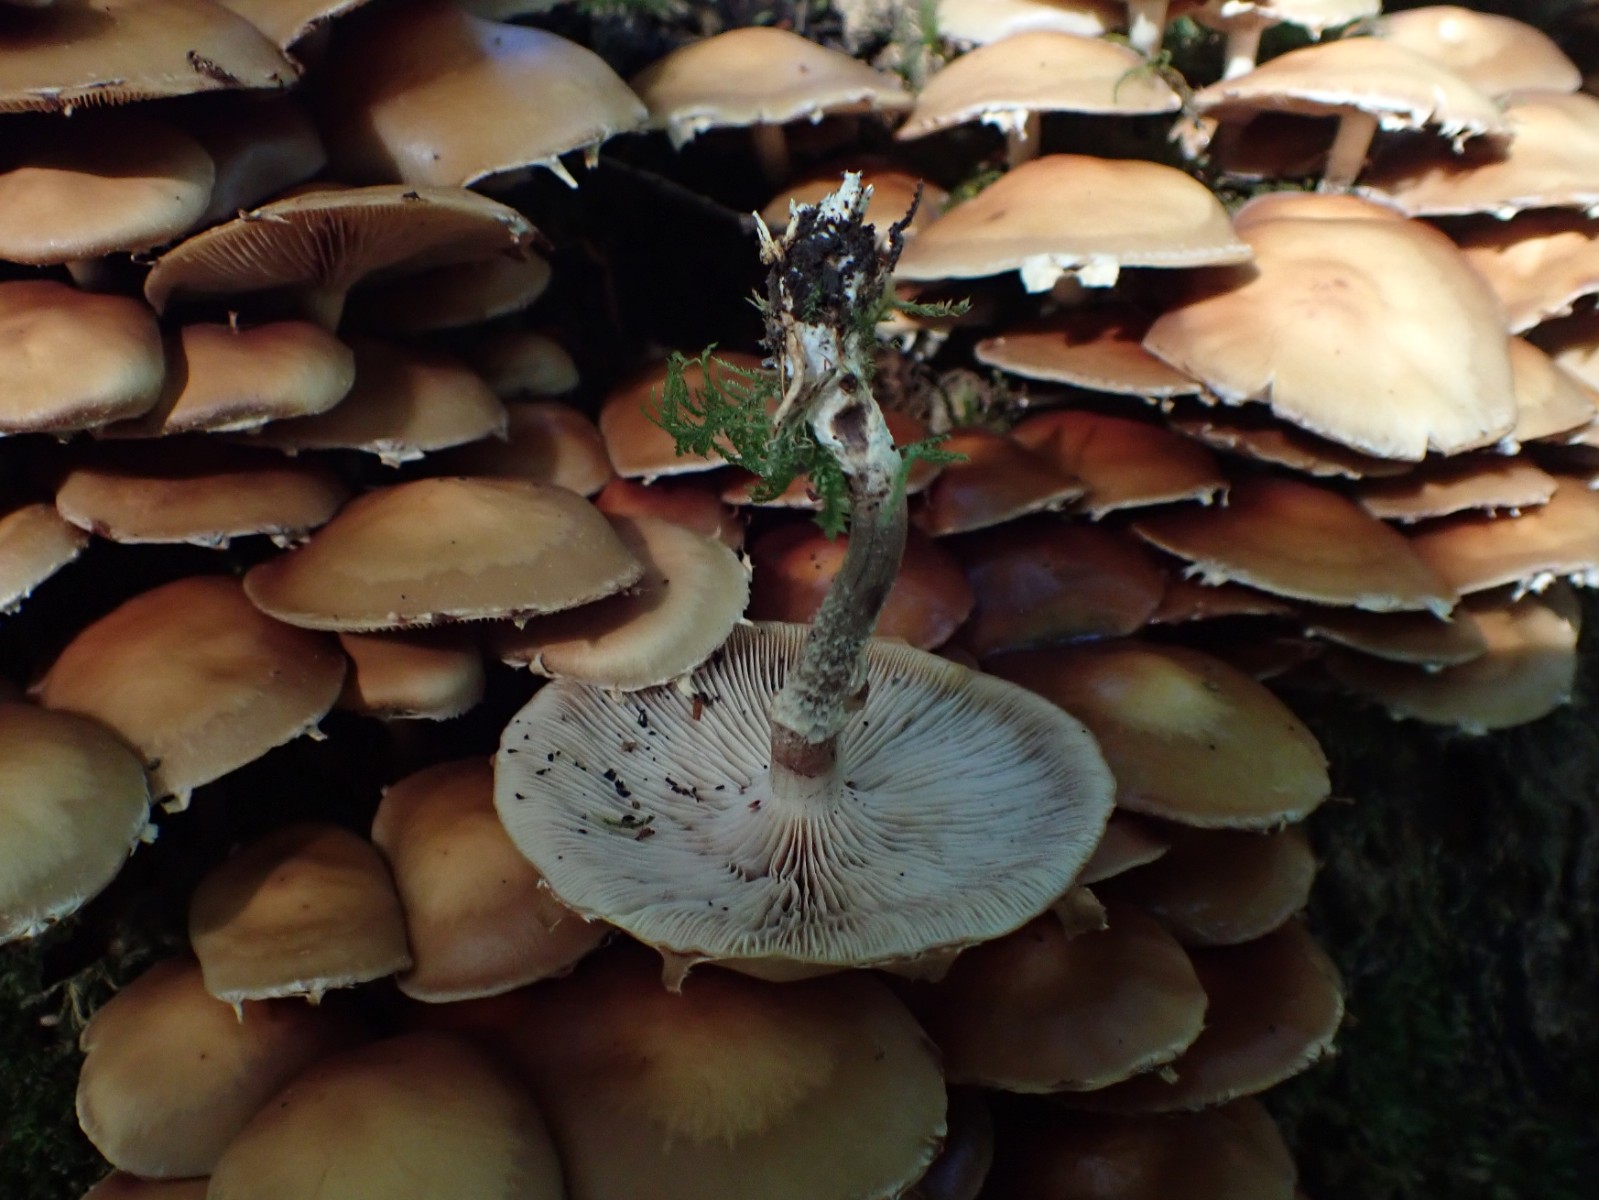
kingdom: Fungi
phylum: Basidiomycota
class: Agaricomycetes
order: Agaricales
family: Strophariaceae
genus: Kuehneromyces
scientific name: Kuehneromyces mutabilis
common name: foranderlig skælhat
